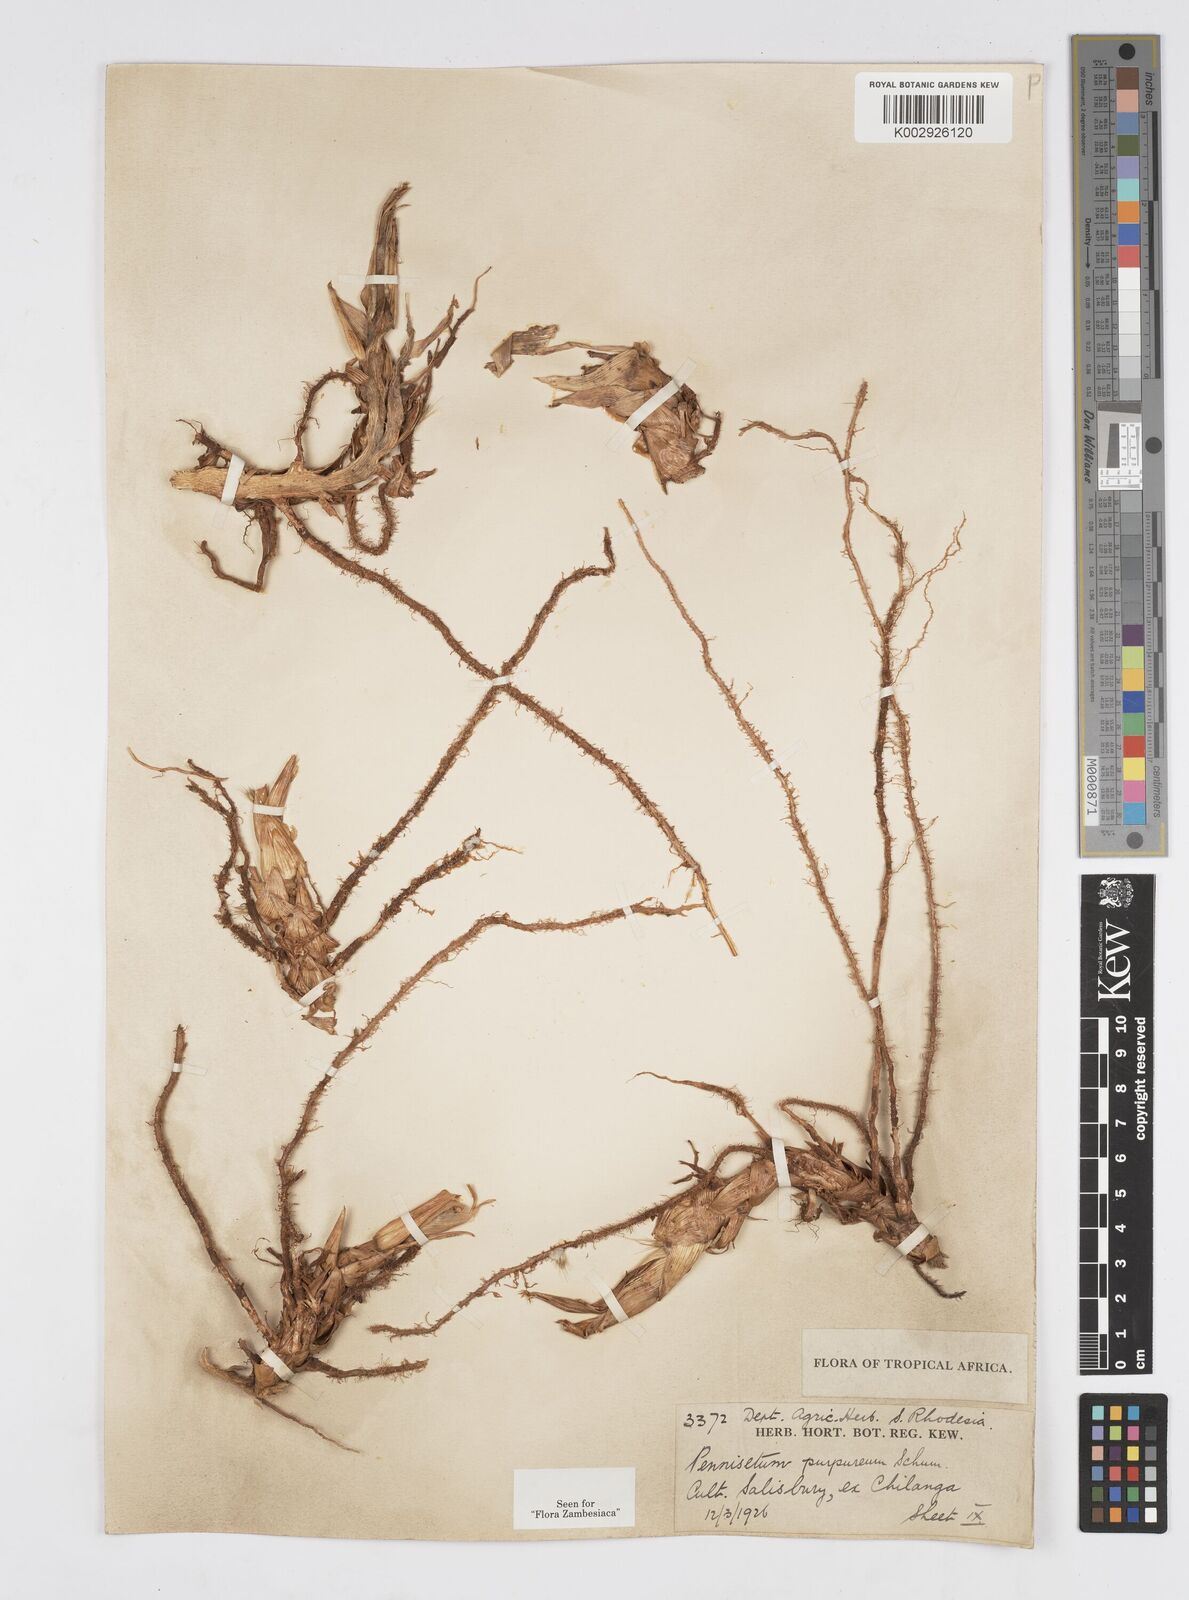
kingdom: Plantae
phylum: Tracheophyta
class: Liliopsida
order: Poales
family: Poaceae
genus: Cenchrus
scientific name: Cenchrus purpureus
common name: Elephant grass
